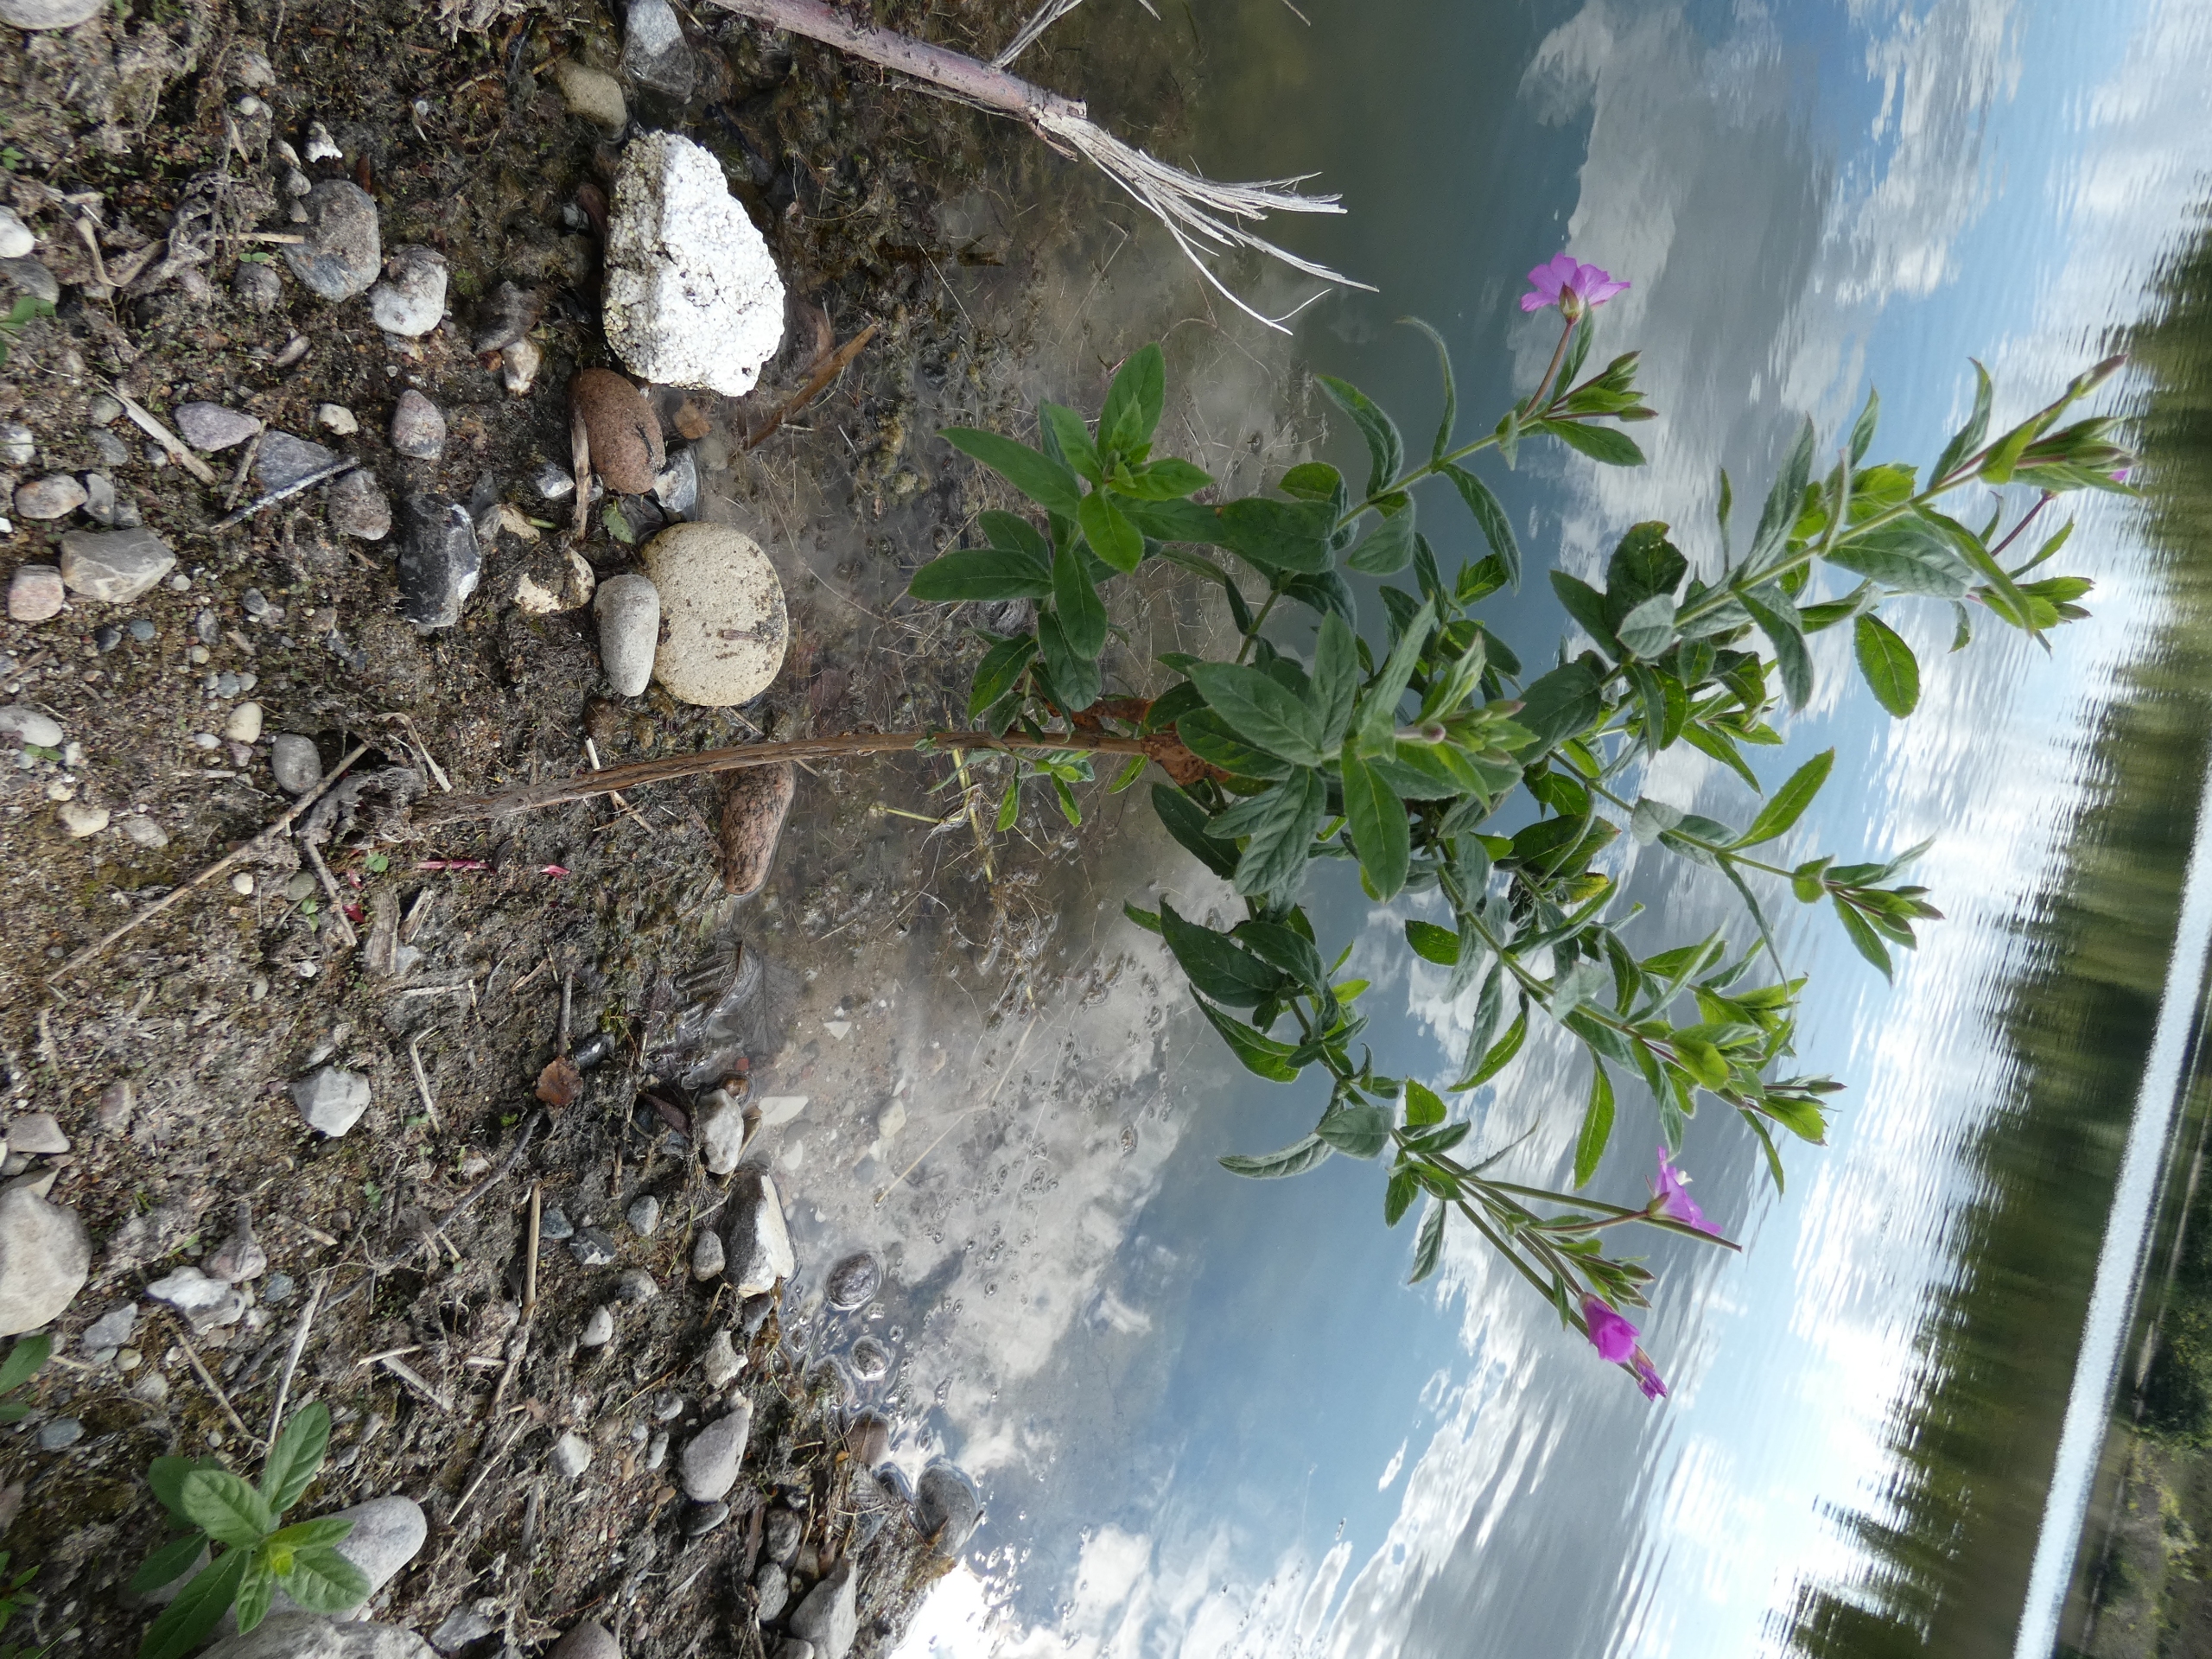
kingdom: Plantae
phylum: Tracheophyta
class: Magnoliopsida
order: Myrtales
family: Onagraceae
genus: Epilobium
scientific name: Epilobium hirsutum
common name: Lådden dueurt
